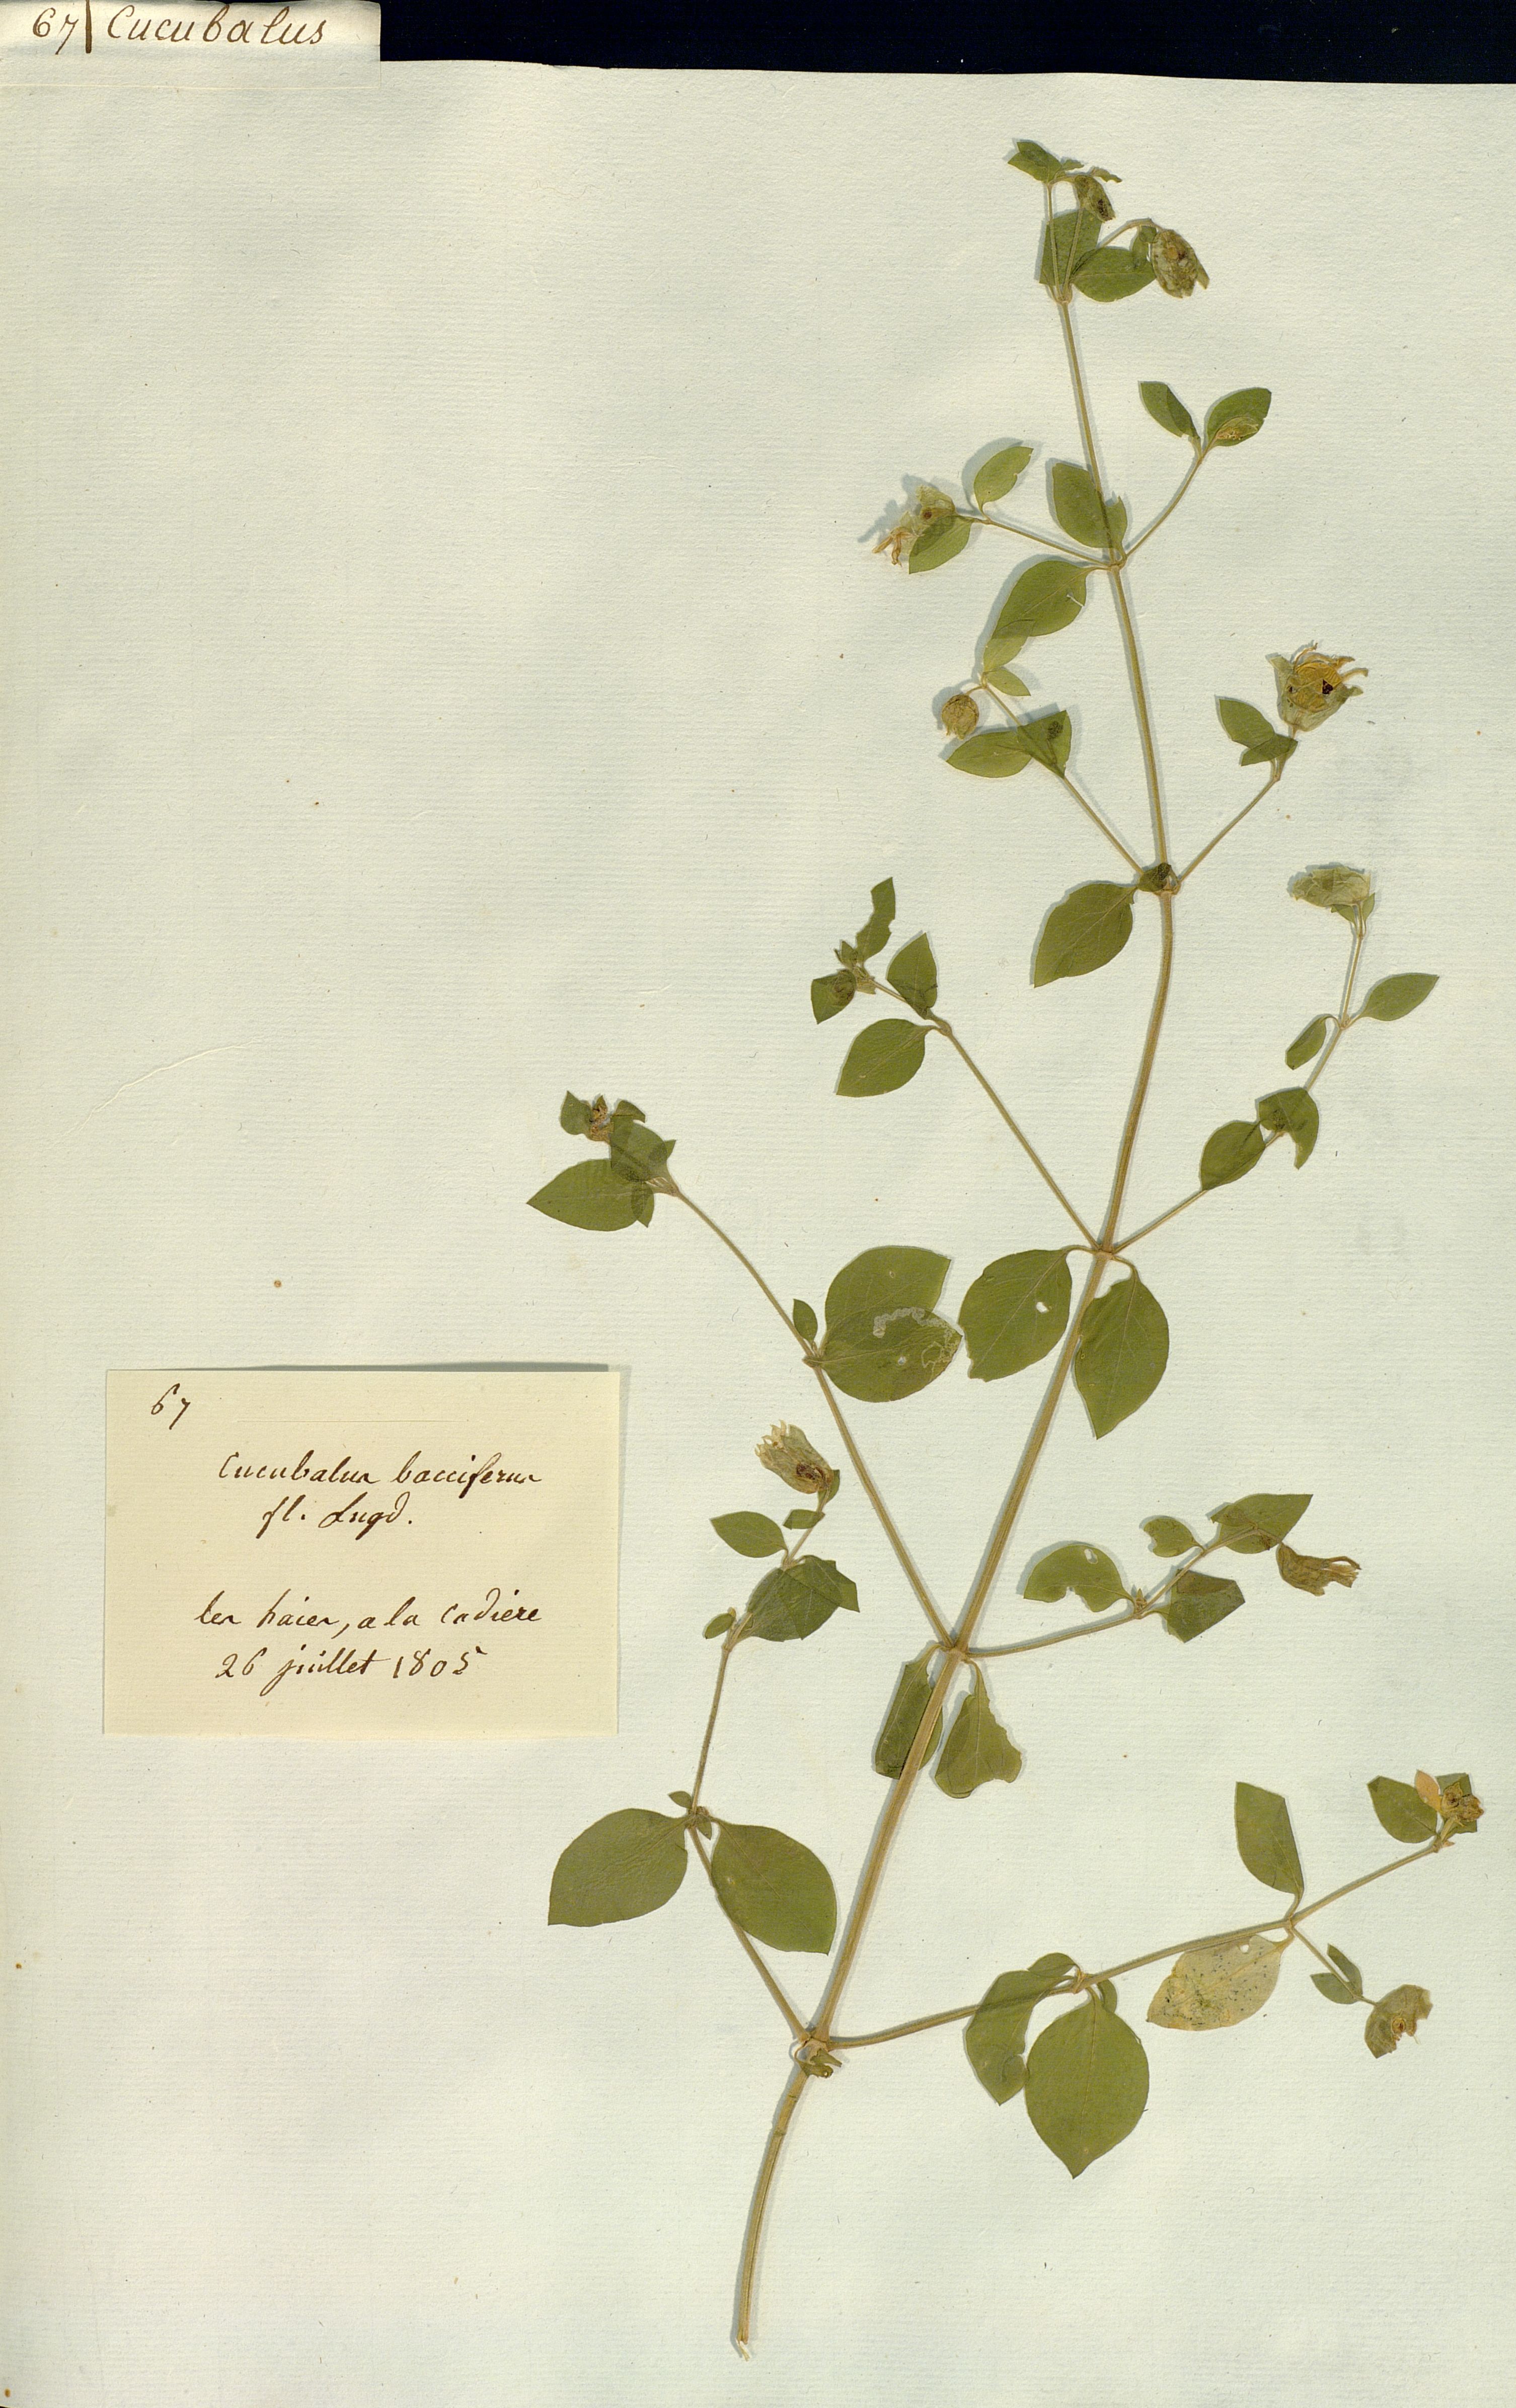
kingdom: Plantae
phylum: Tracheophyta
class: Magnoliopsida
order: Caryophyllales
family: Caryophyllaceae
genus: Silene
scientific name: Silene baccifera
